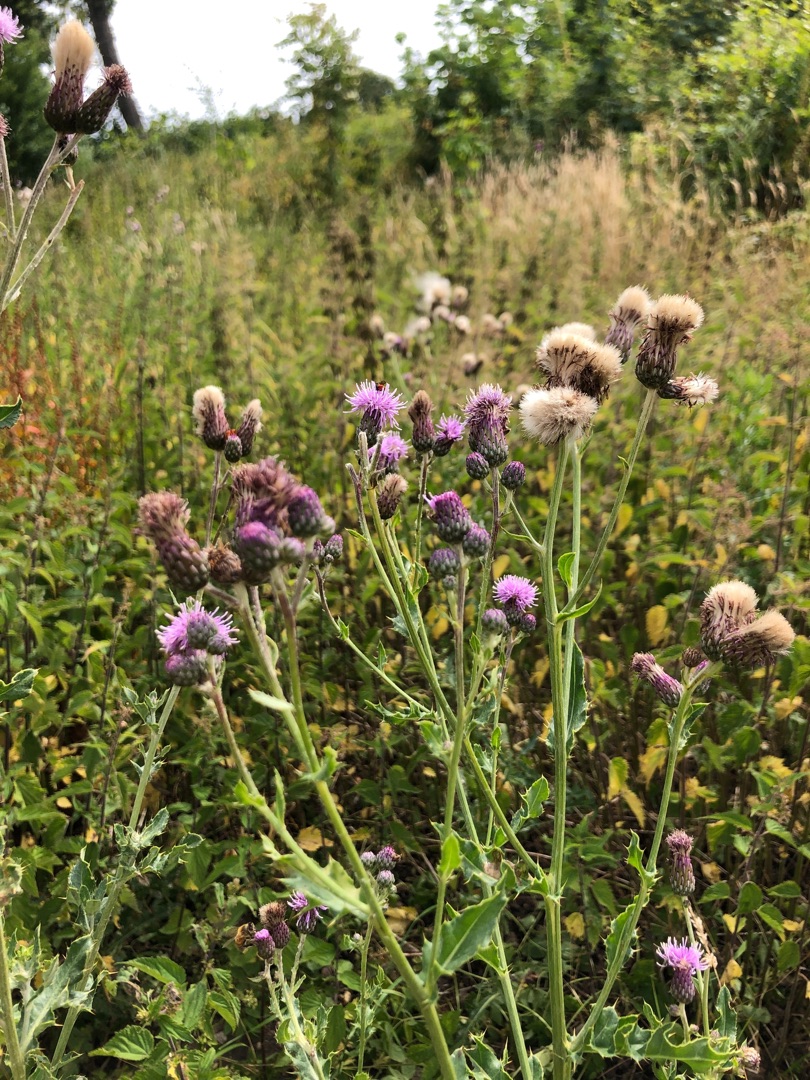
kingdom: Plantae
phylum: Tracheophyta
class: Magnoliopsida
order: Asterales
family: Asteraceae
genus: Cirsium
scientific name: Cirsium arvense
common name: Ager-tidsel
